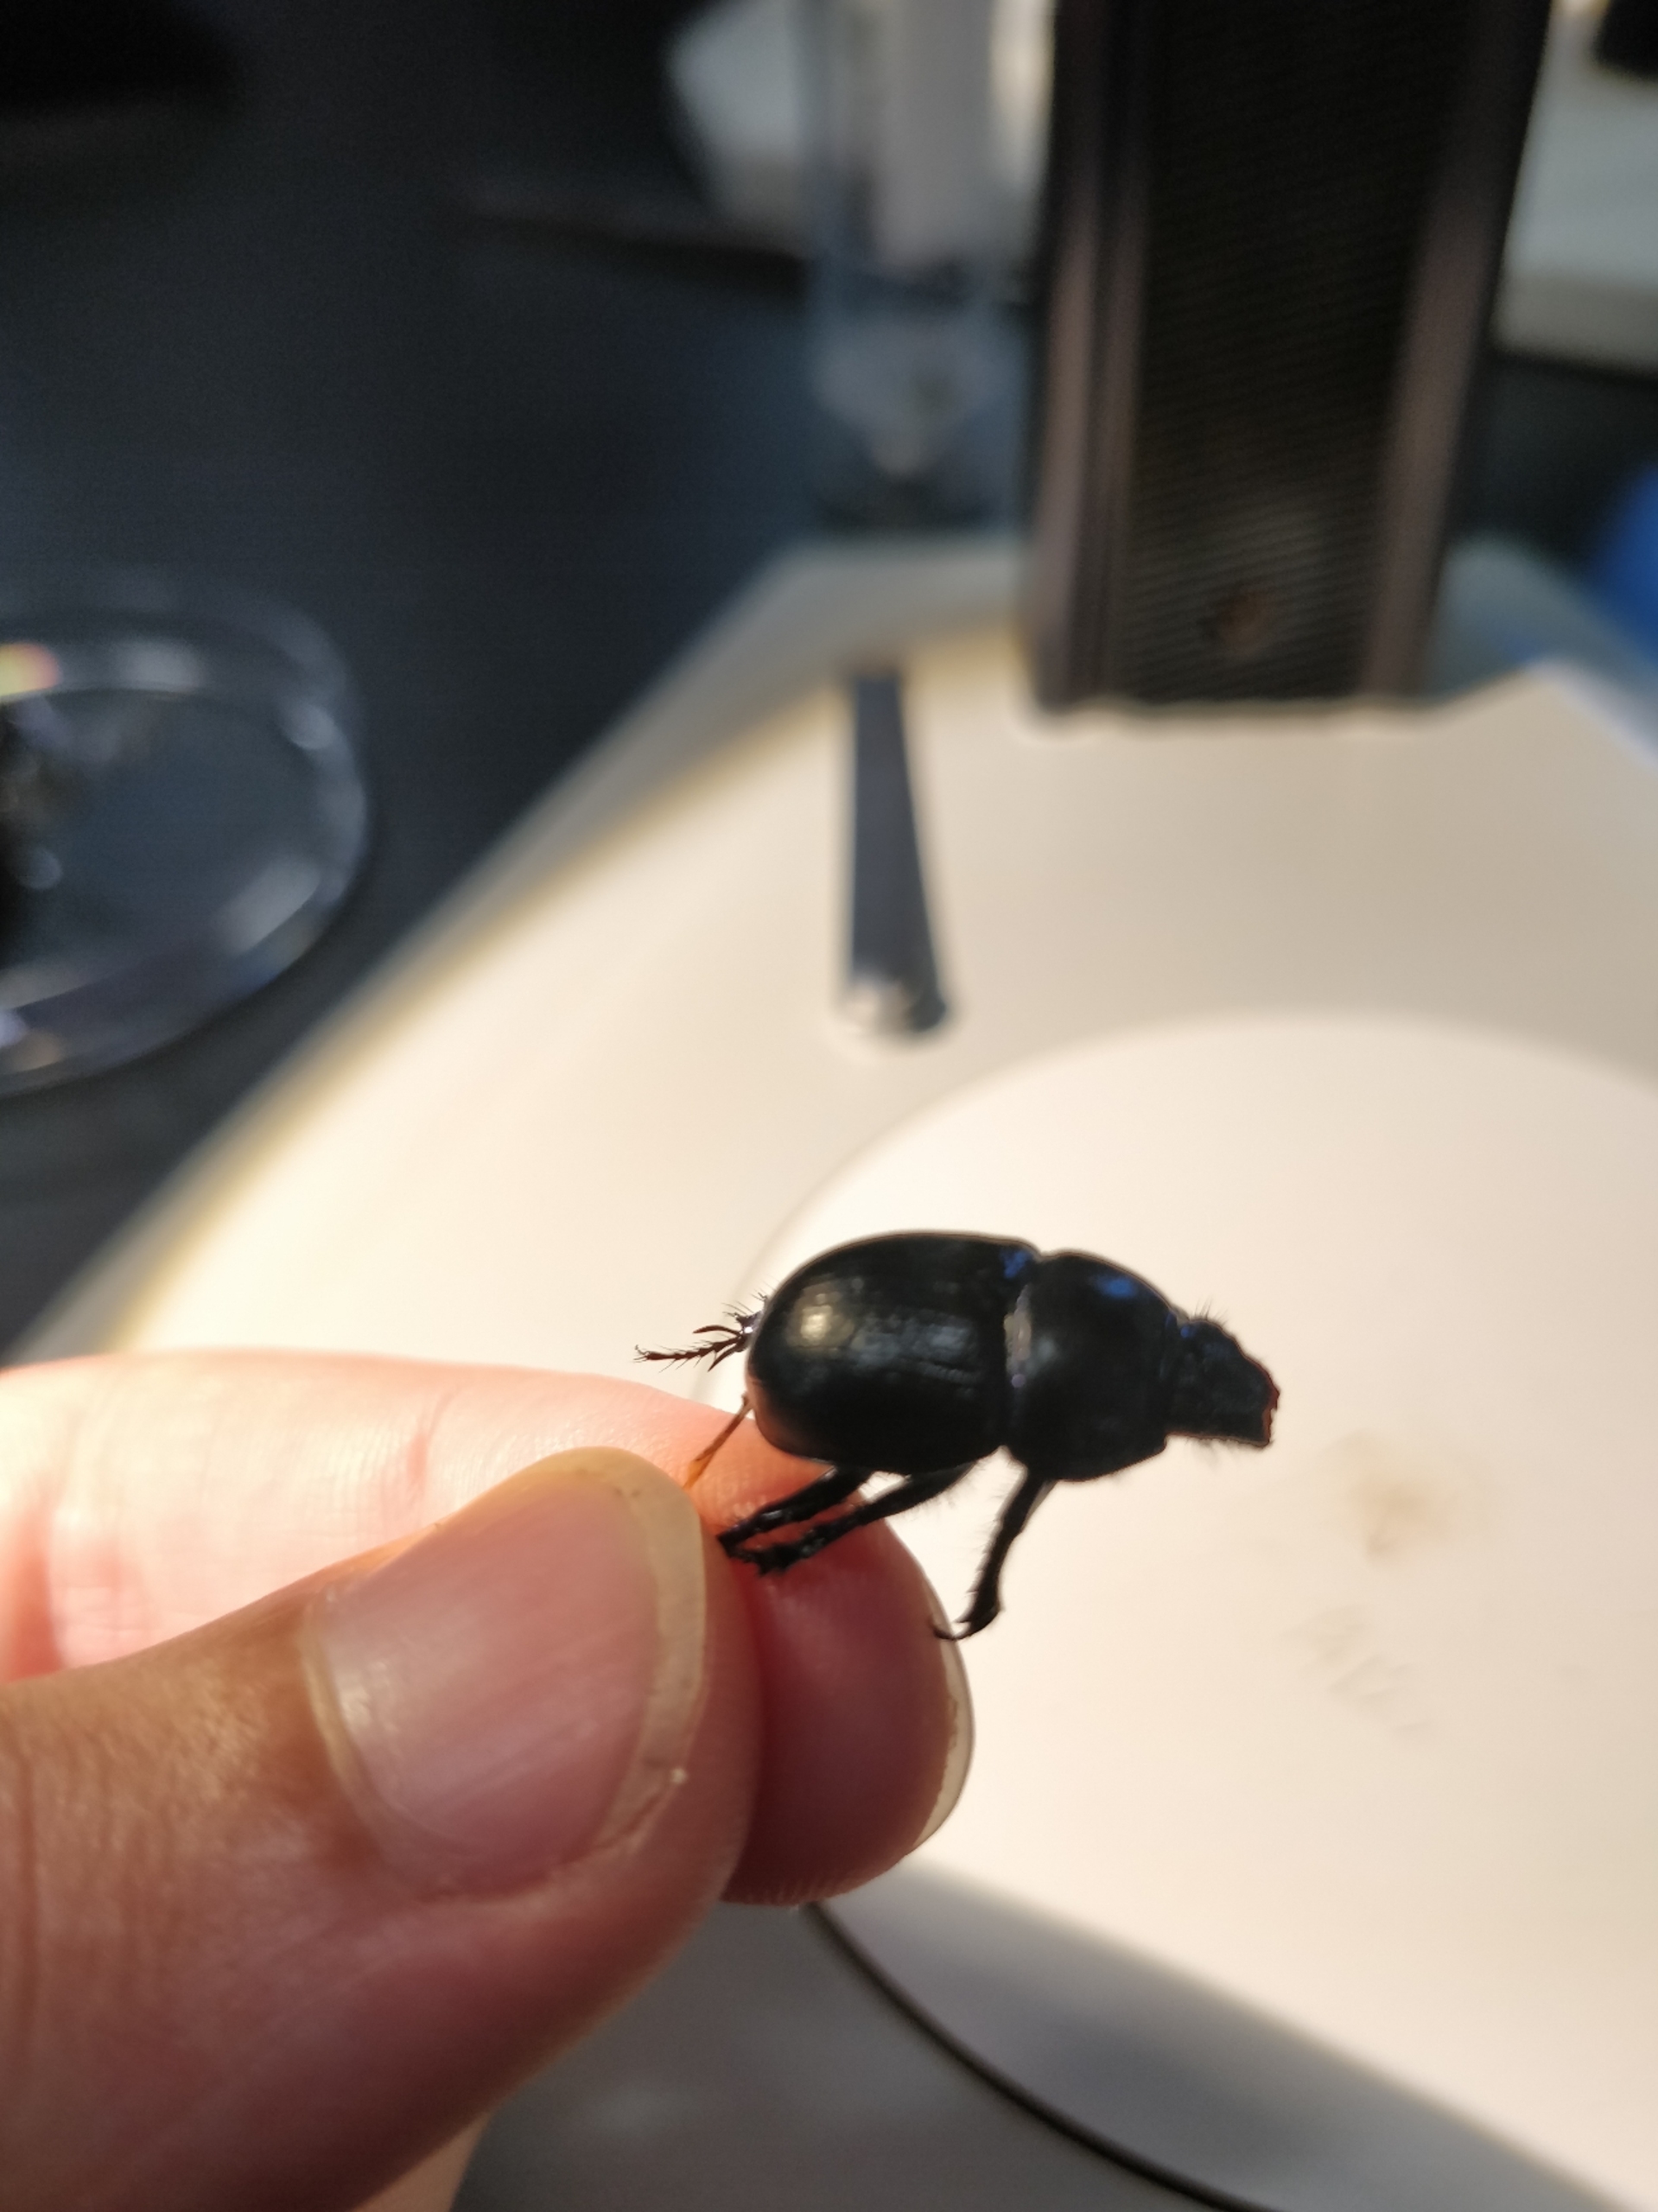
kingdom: Animalia
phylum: Arthropoda
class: Insecta
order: Coleoptera
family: Geotrupidae
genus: Anoplotrupes
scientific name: Anoplotrupes stercorosus
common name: Skovskarnbasse
